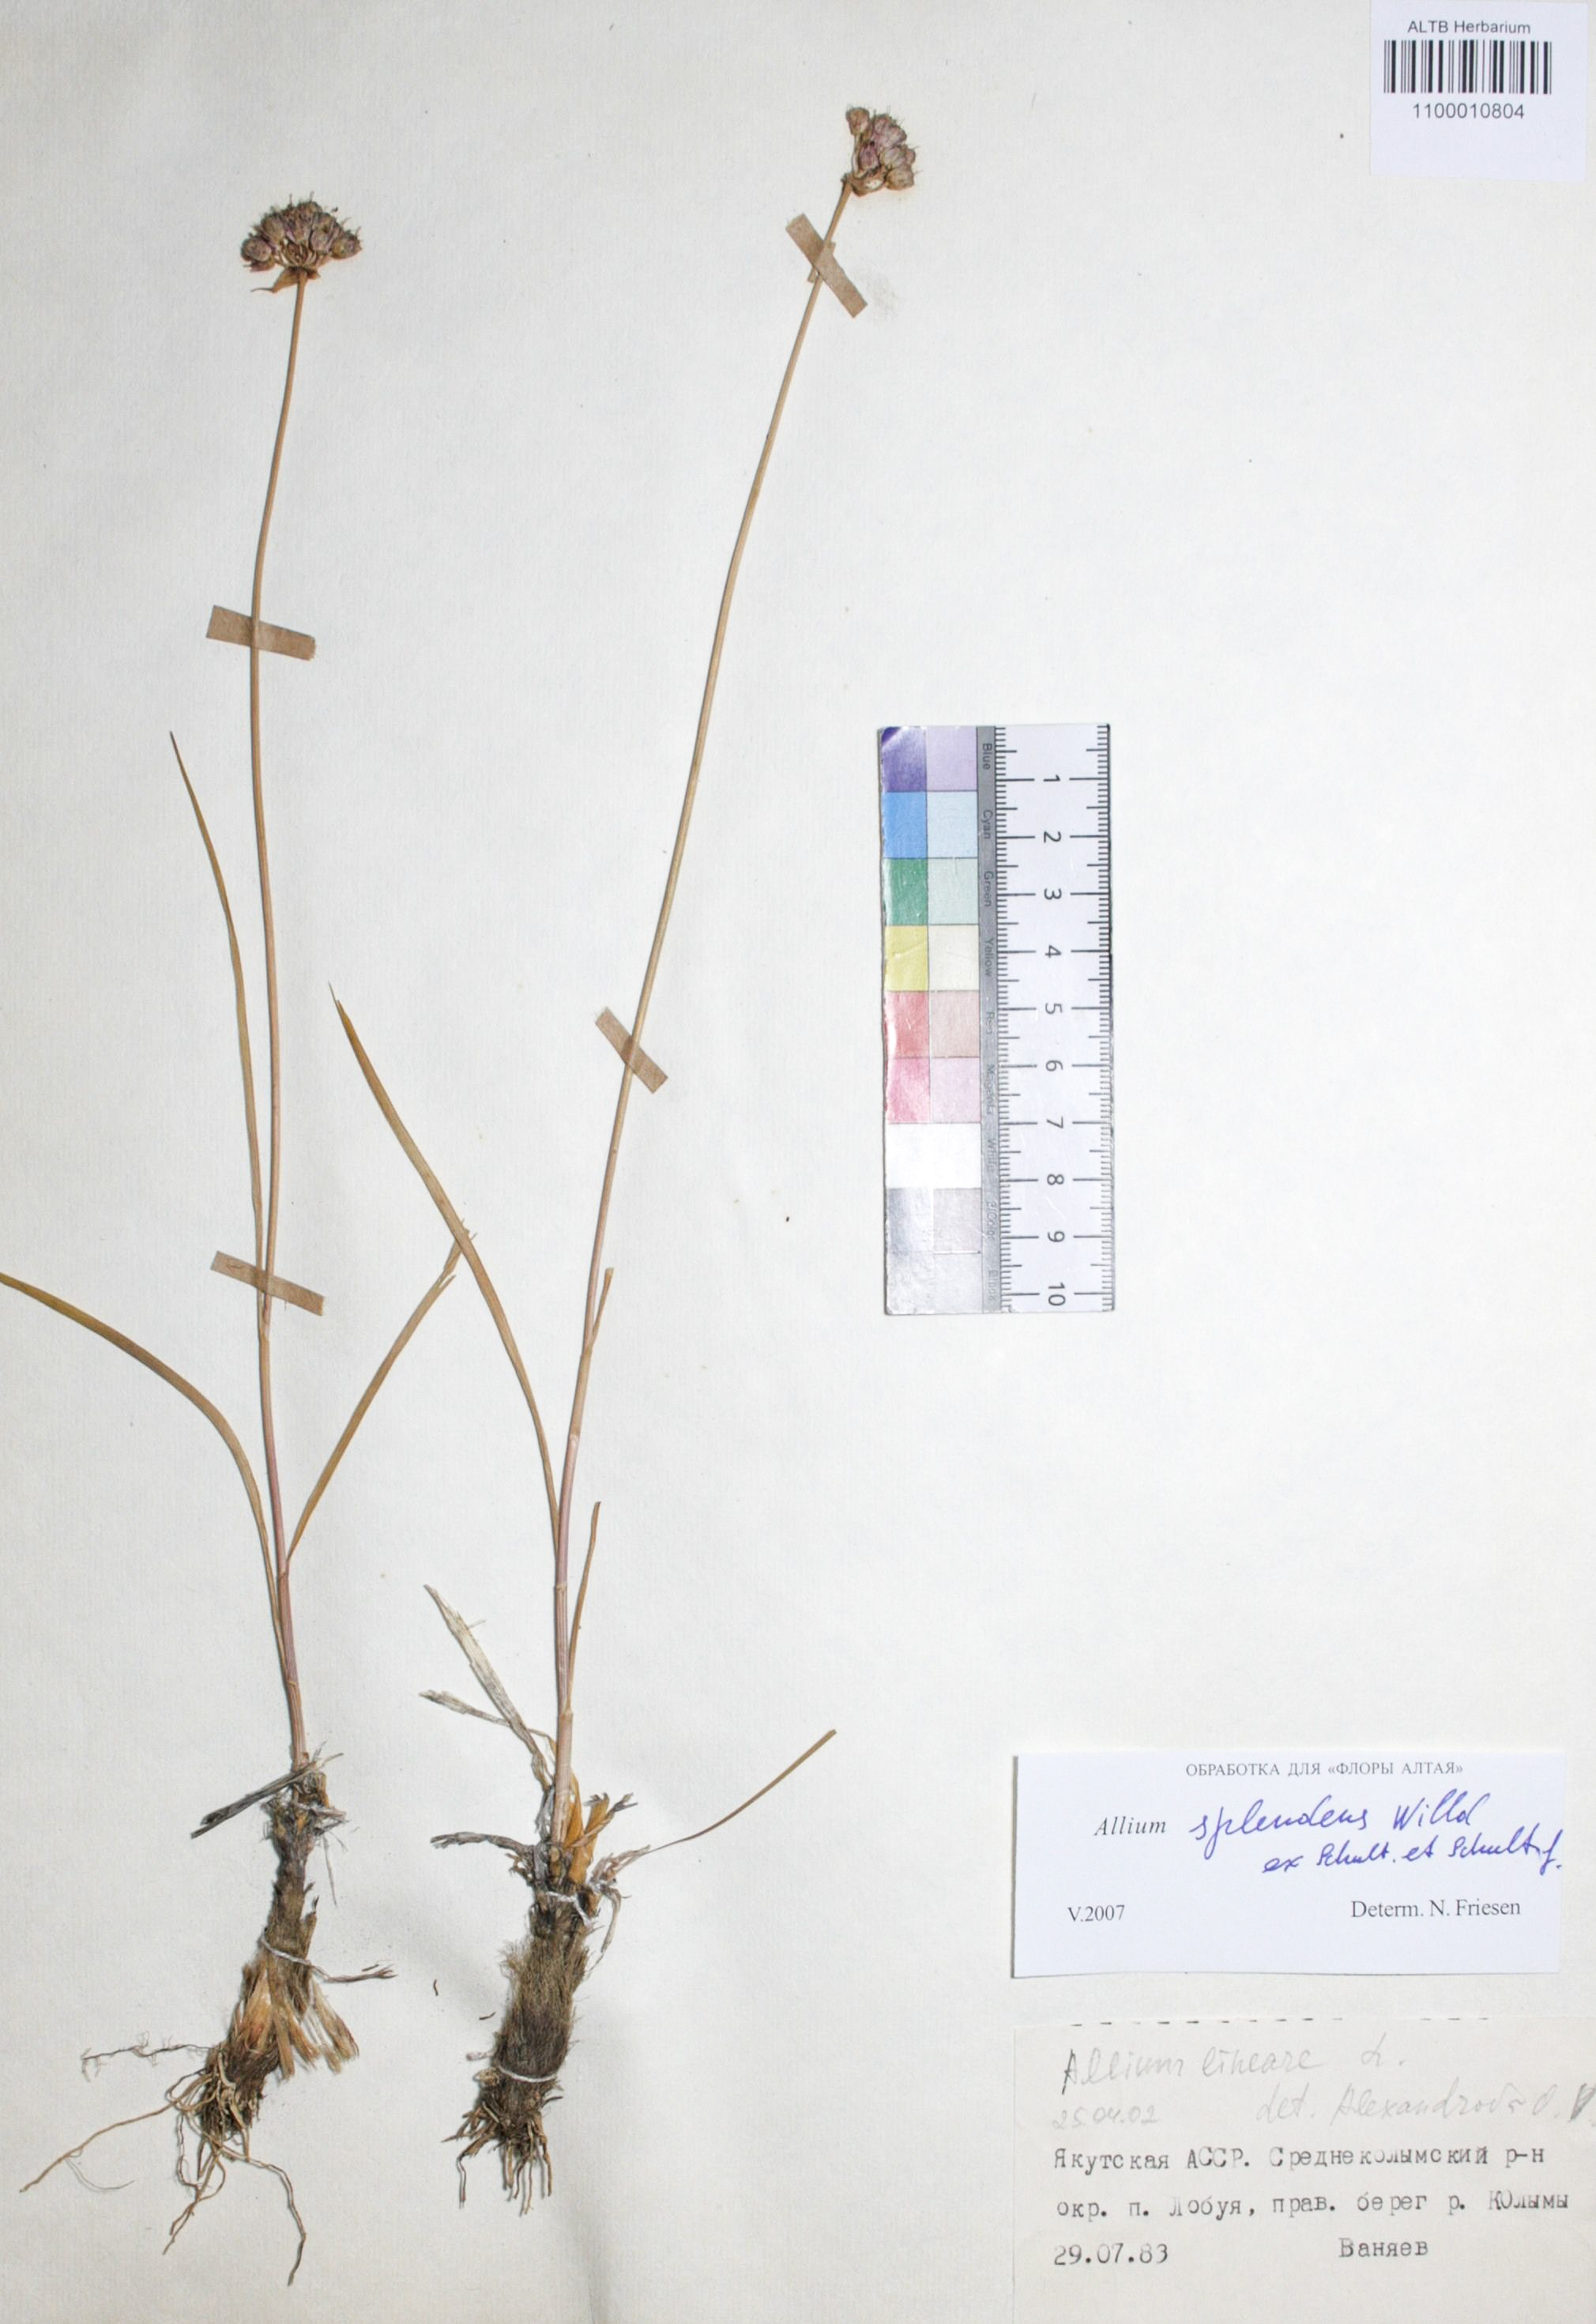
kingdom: Plantae
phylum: Tracheophyta
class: Liliopsida
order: Asparagales
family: Amaryllidaceae
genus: Allium
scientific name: Allium splendens
